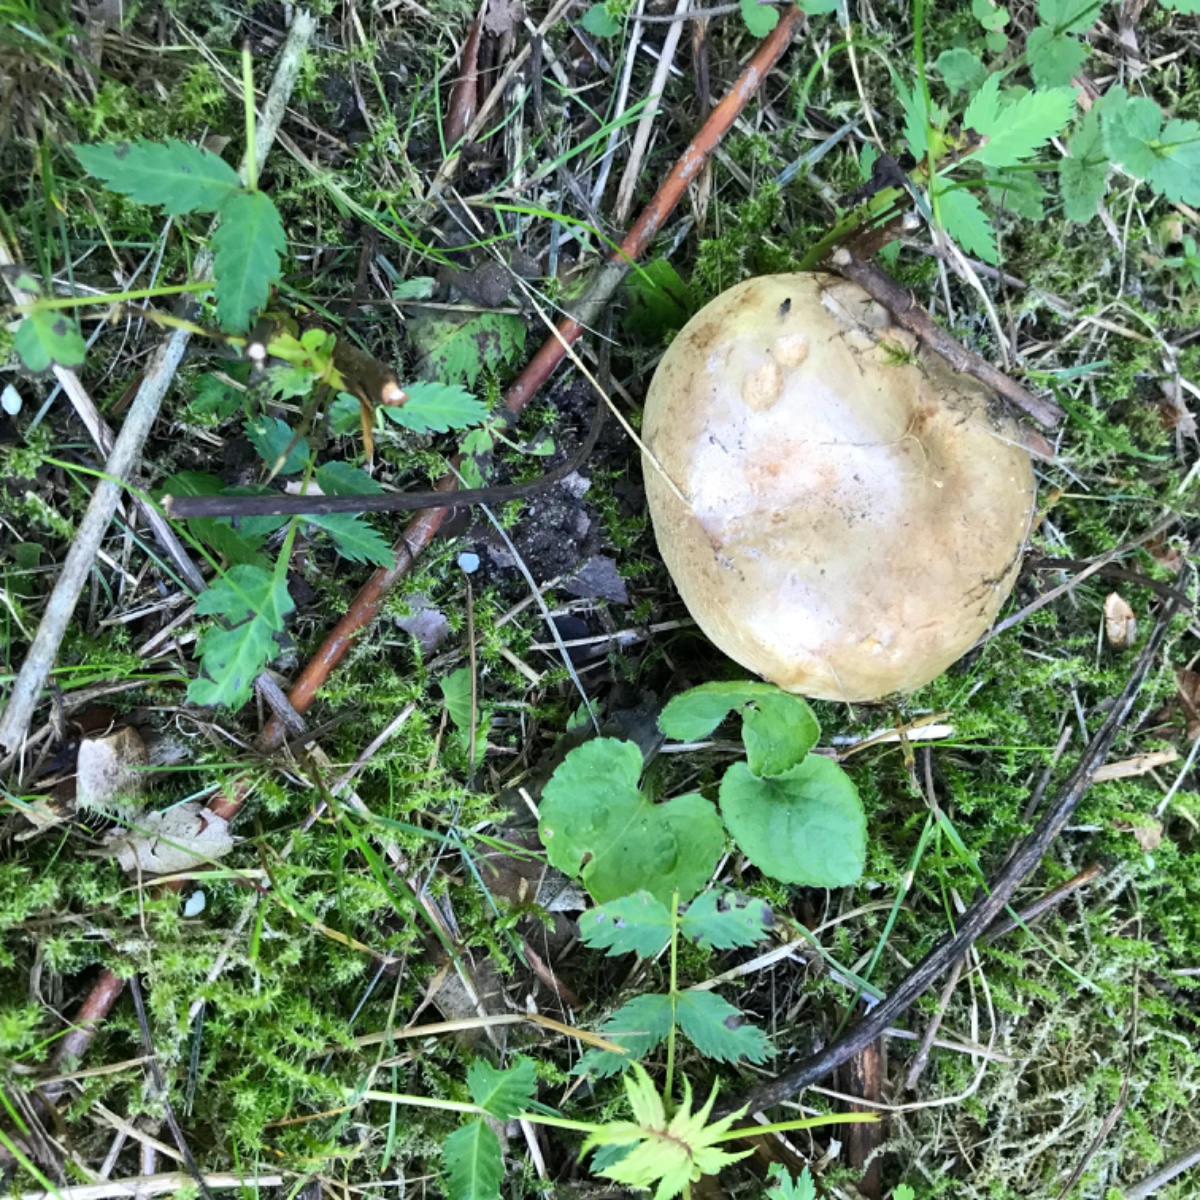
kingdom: Fungi
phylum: Basidiomycota
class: Agaricomycetes
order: Boletales
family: Paxillaceae
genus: Paxillus
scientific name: Paxillus involutus
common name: almindelig netbladhat
